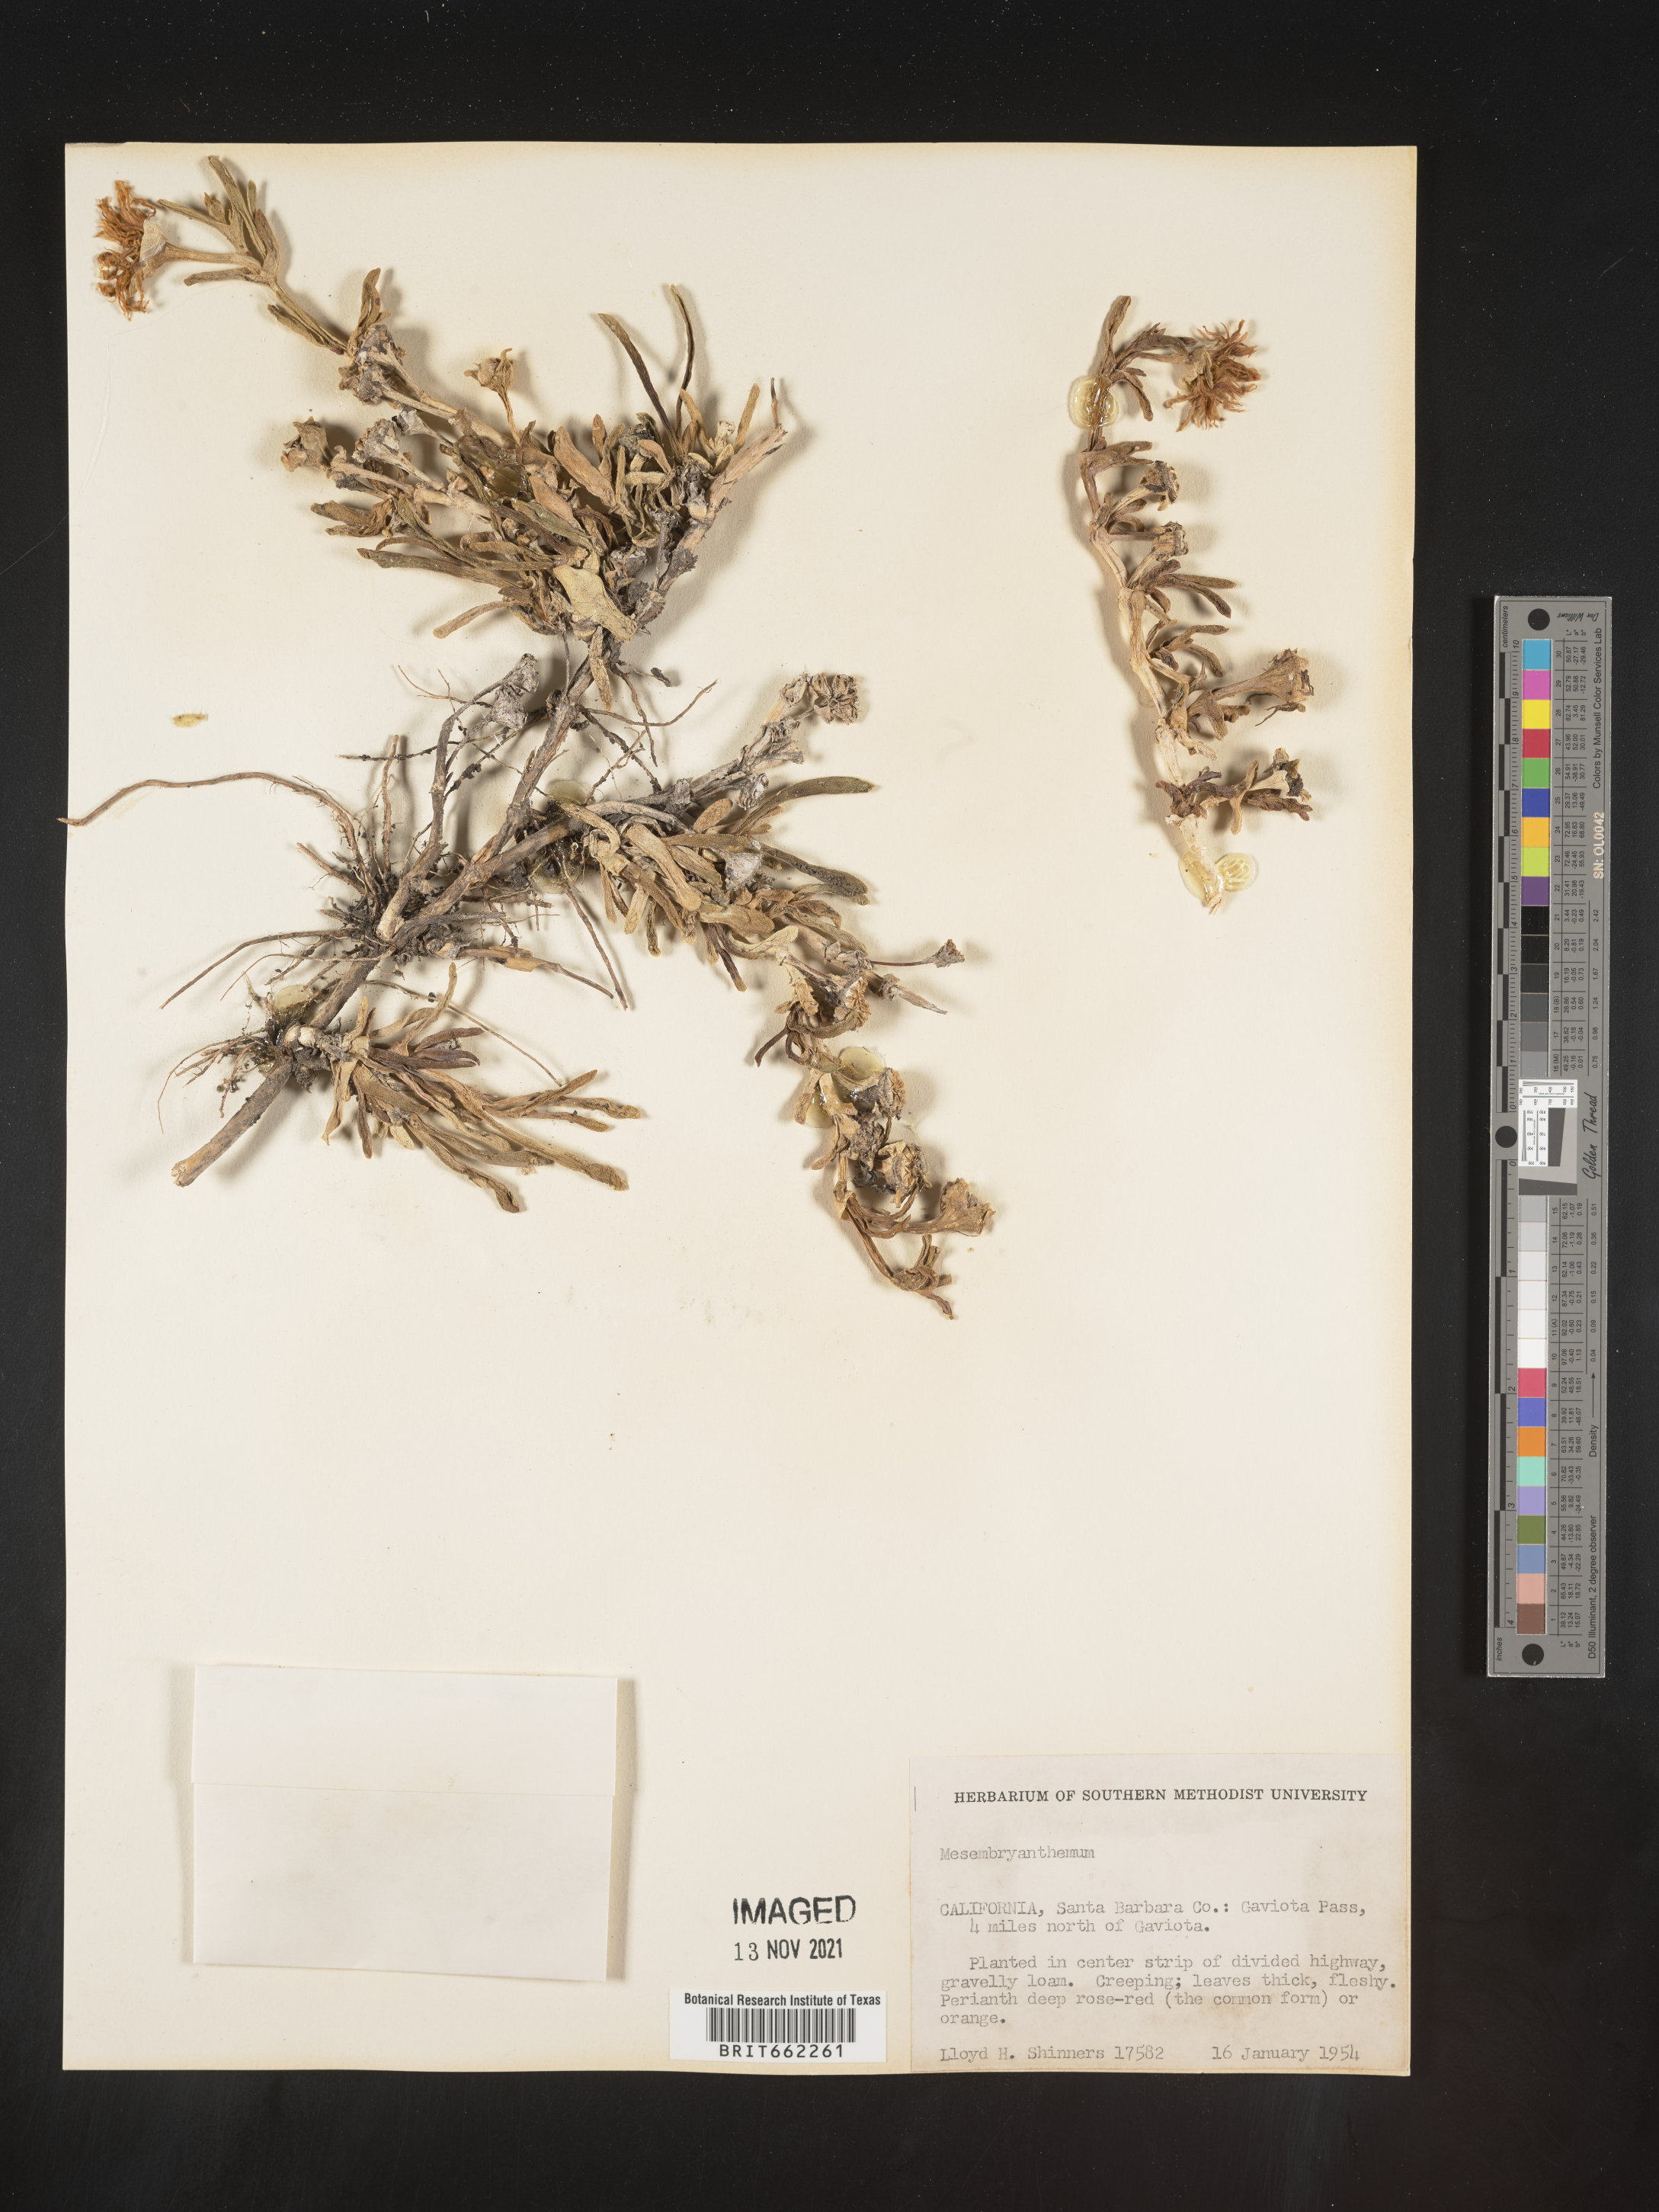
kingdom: Plantae
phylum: Tracheophyta
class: Magnoliopsida
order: Caryophyllales
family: Aizoaceae
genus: Mesembryanthemum
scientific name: Mesembryanthemum
